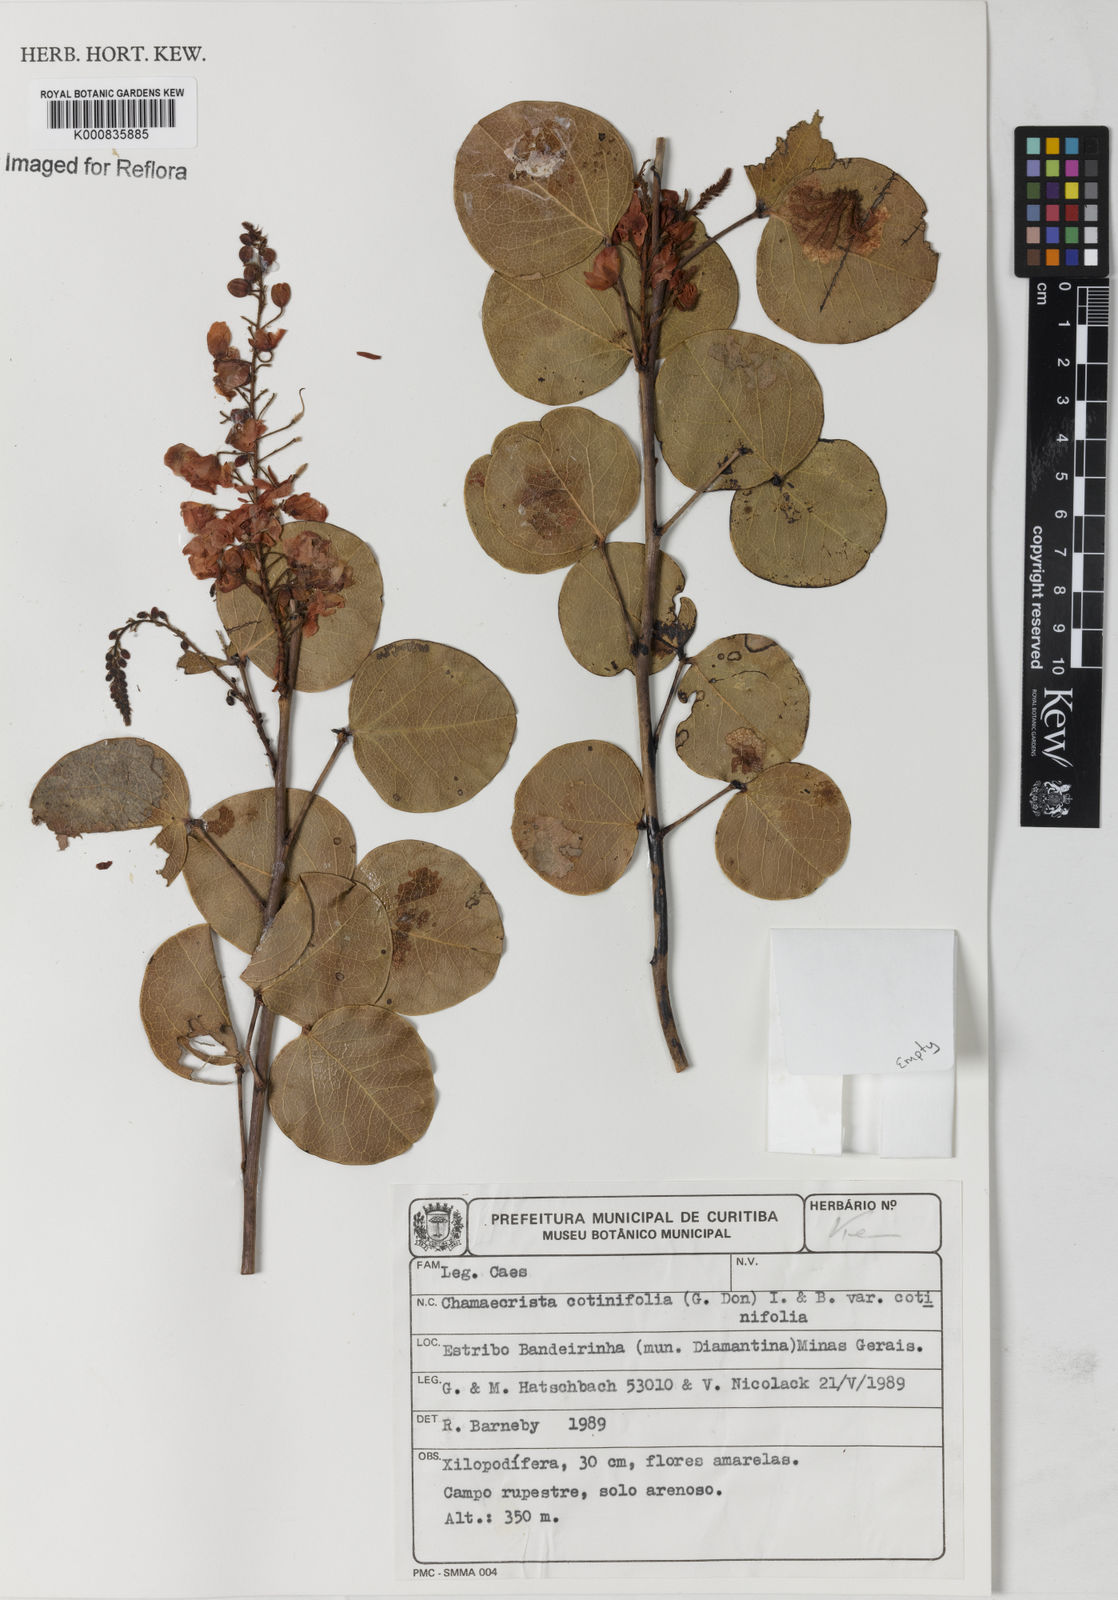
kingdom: Plantae
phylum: Tracheophyta
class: Magnoliopsida
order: Fabales
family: Fabaceae
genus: Chamaecrista
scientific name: Chamaecrista cotinifolia
